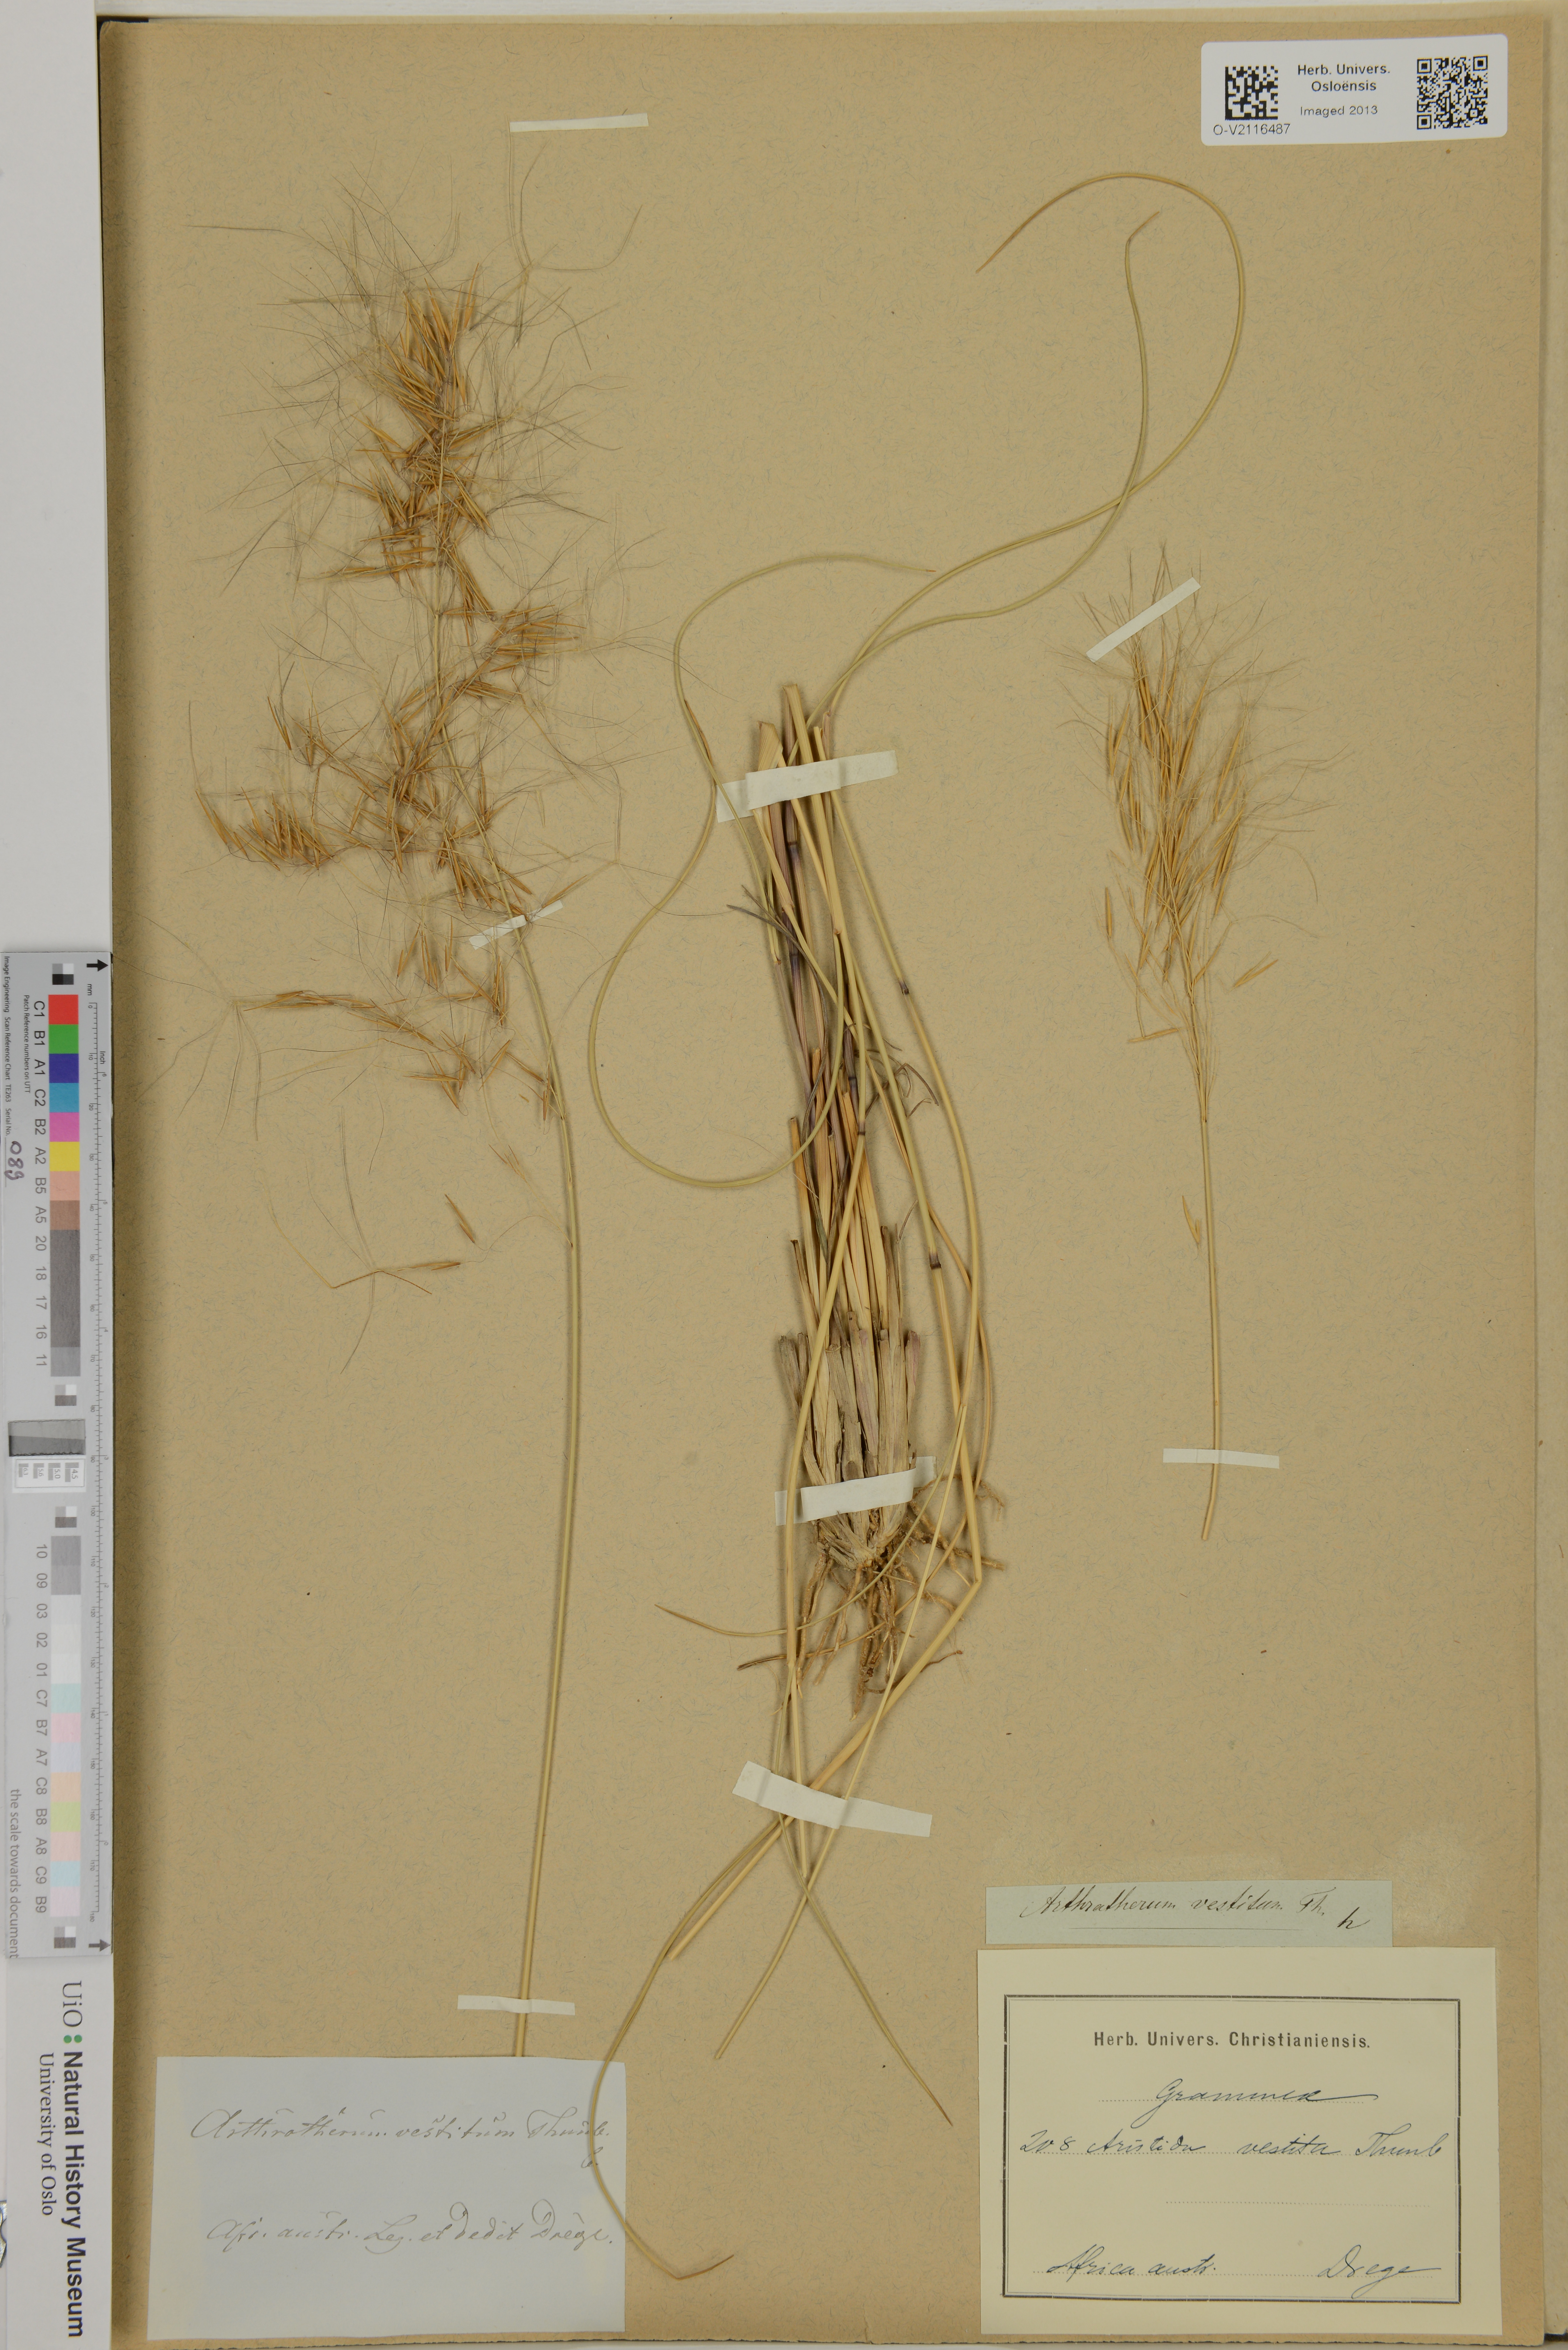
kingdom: Plantae
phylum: Tracheophyta
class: Liliopsida
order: Poales
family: Poaceae
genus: Aristida
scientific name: Aristida vestita
